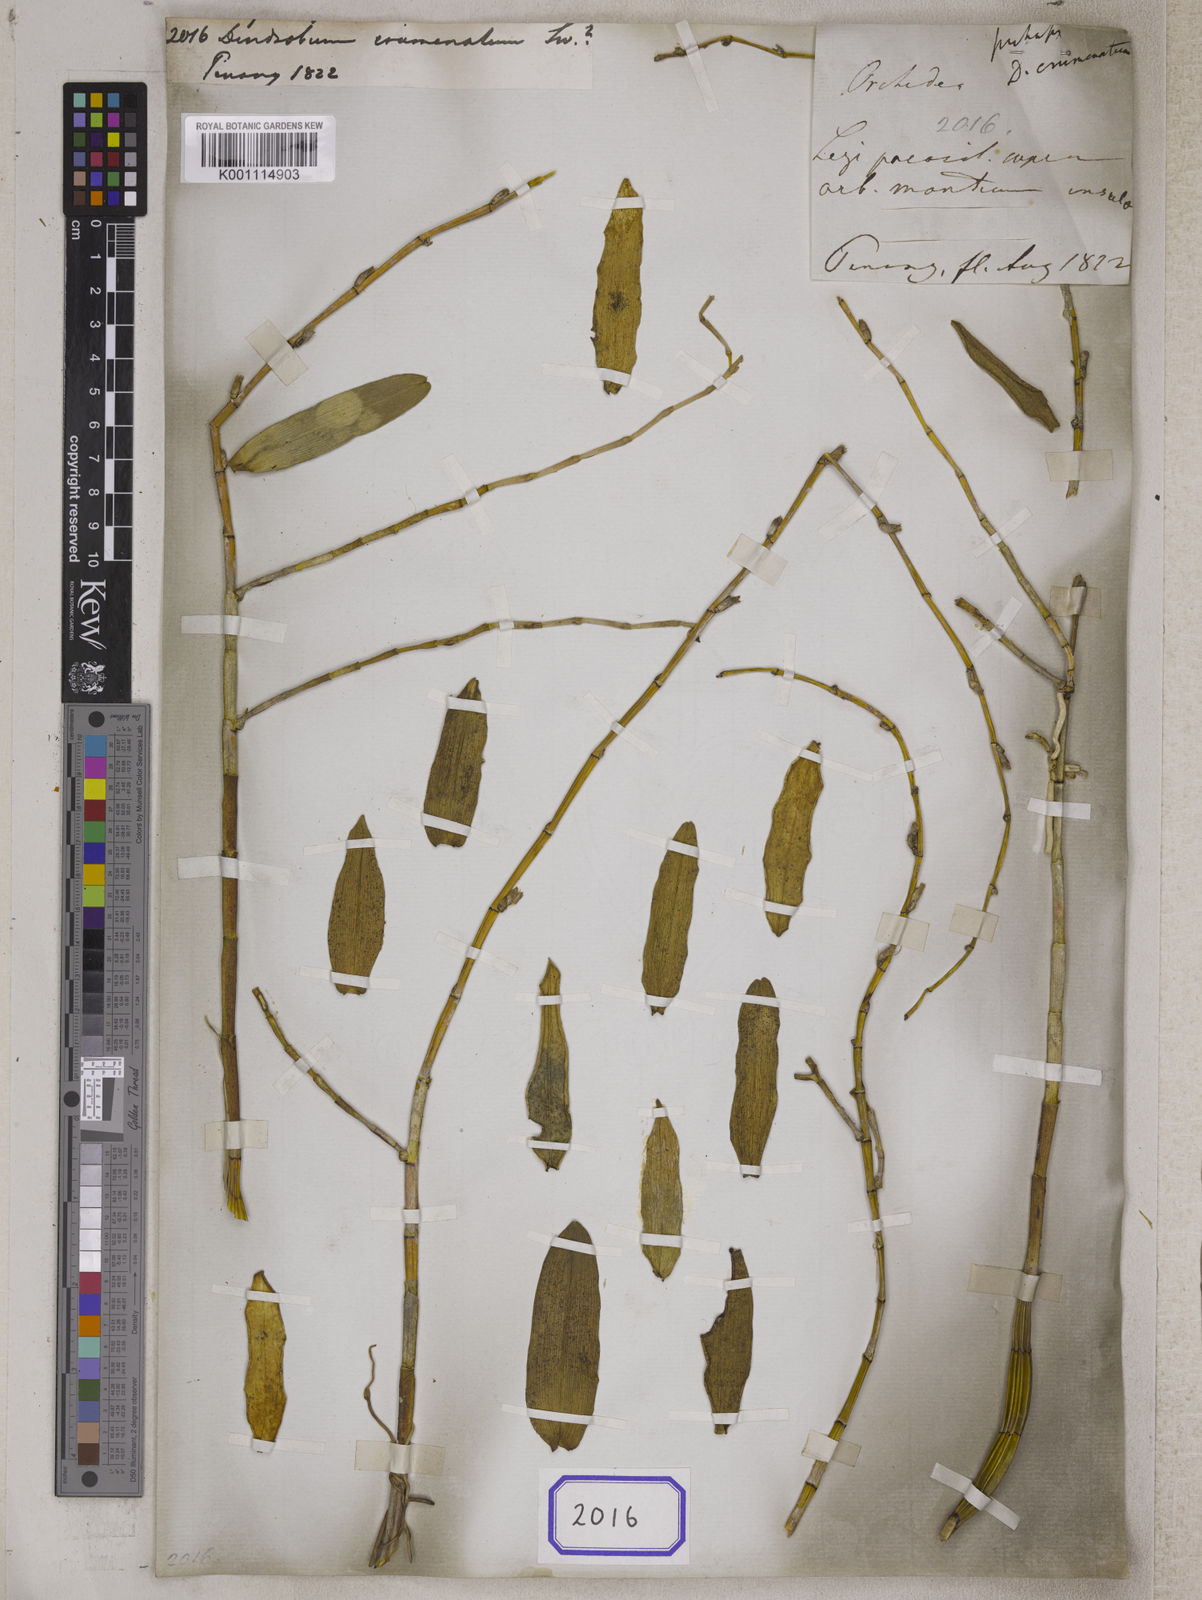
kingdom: Plantae
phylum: Tracheophyta
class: Liliopsida
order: Asparagales
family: Orchidaceae
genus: Dendrobium
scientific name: Dendrobium crumenatum
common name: Orchid
